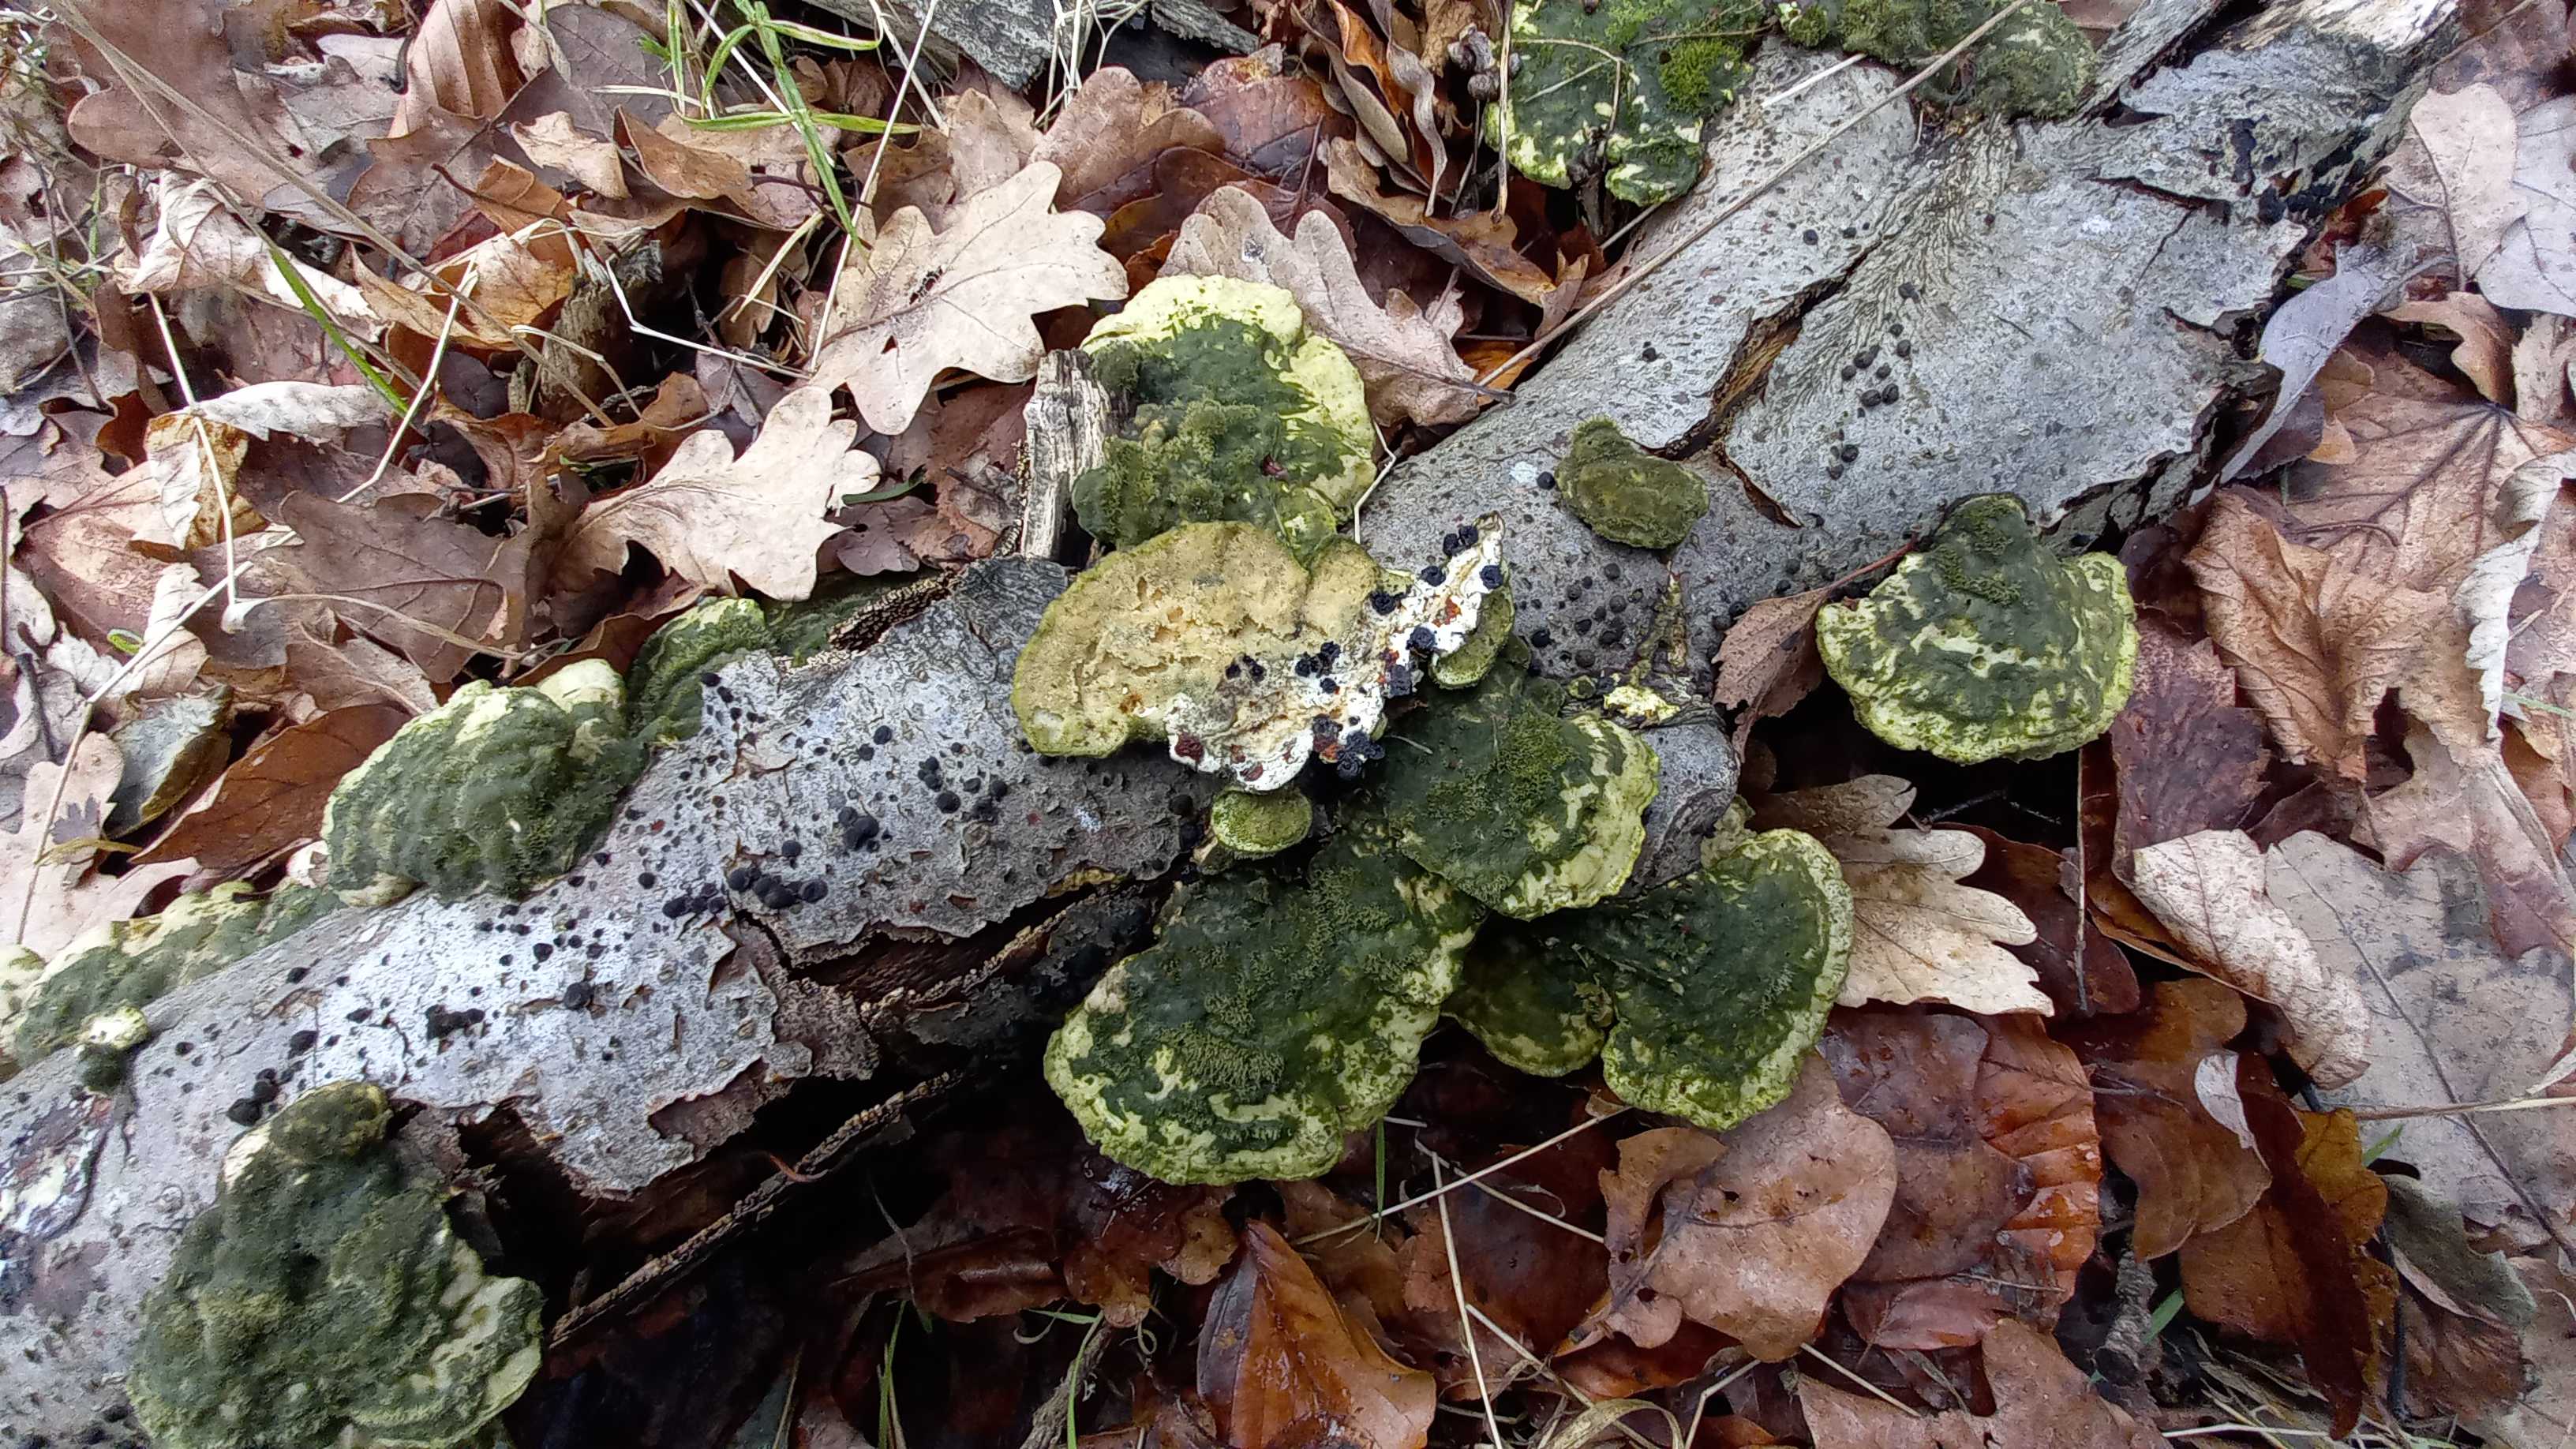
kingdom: Fungi
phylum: Basidiomycota
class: Agaricomycetes
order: Polyporales
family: Polyporaceae
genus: Trametes
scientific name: Trametes hirsuta
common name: håret læderporesvamp
